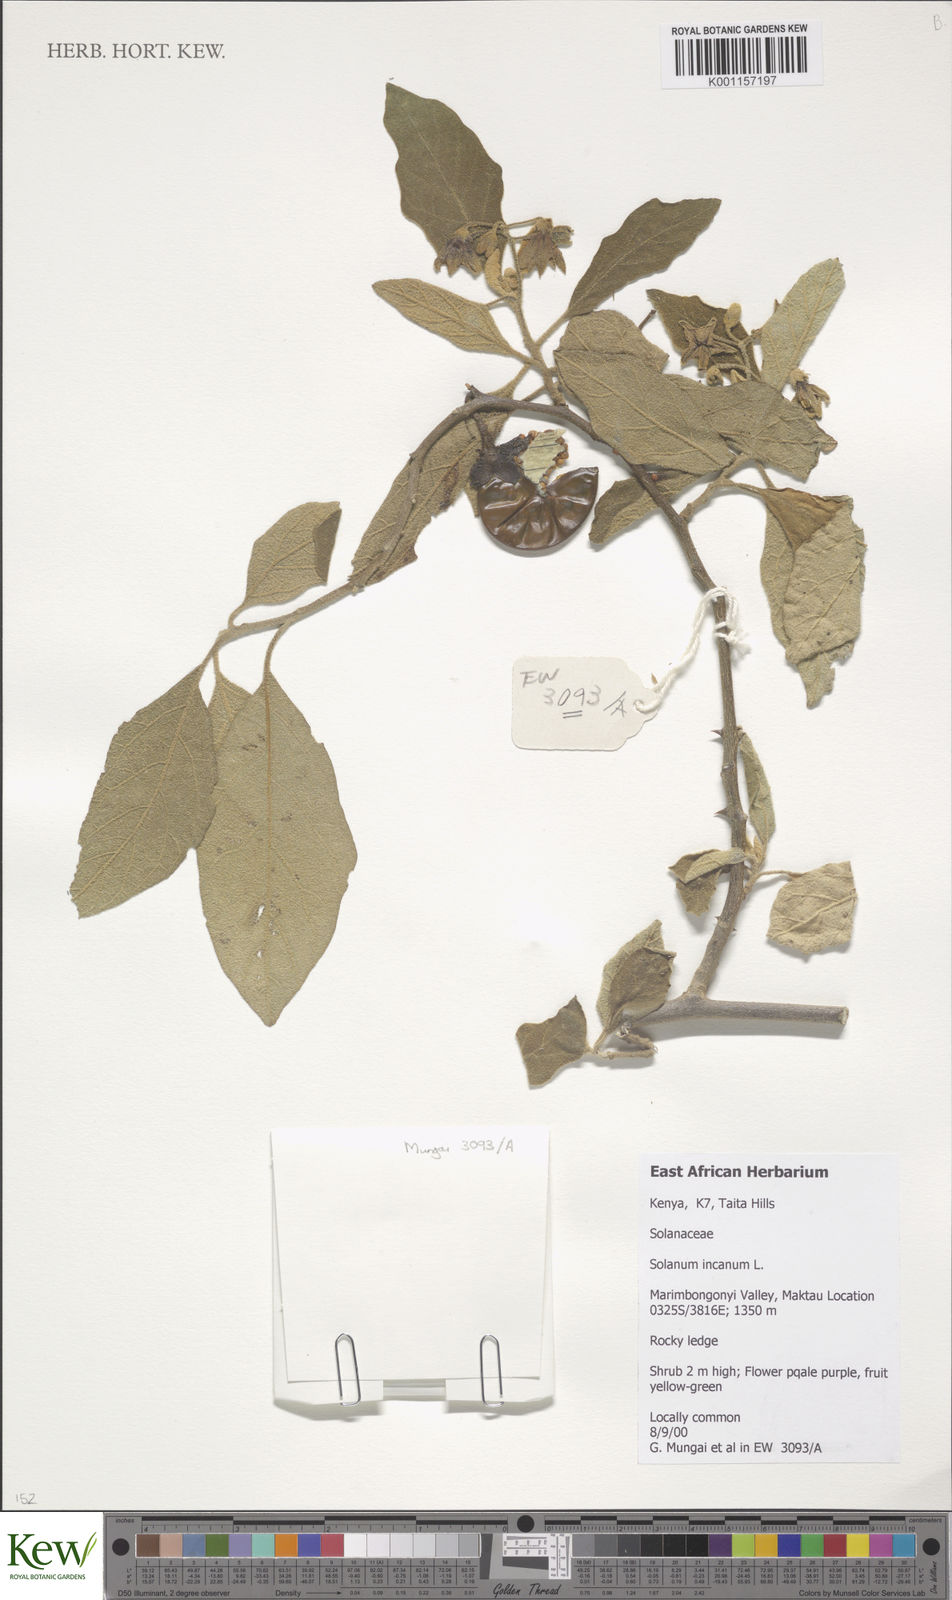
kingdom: Plantae
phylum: Tracheophyta
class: Magnoliopsida
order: Solanales
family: Solanaceae
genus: Solanum
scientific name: Solanum campylacanthum
